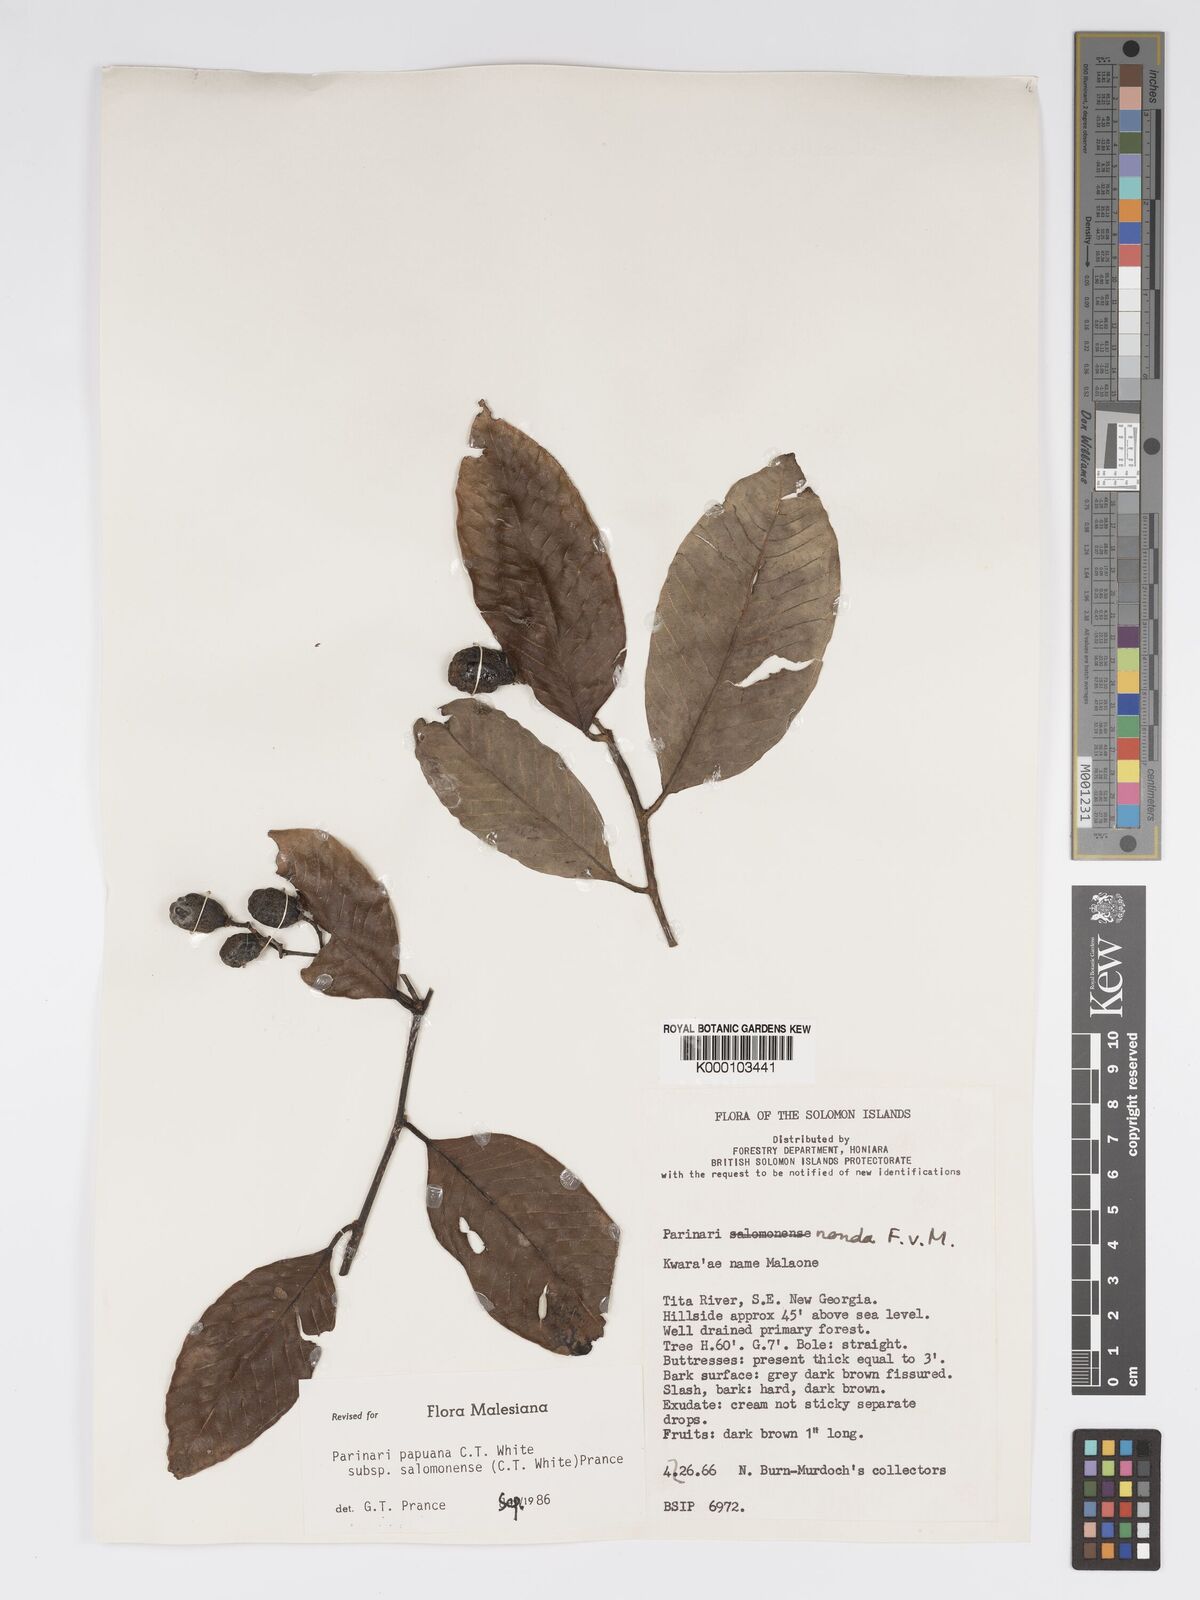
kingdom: Plantae
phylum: Tracheophyta
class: Magnoliopsida
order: Malpighiales
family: Chrysobalanaceae
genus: Parinari
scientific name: Parinari papuana
